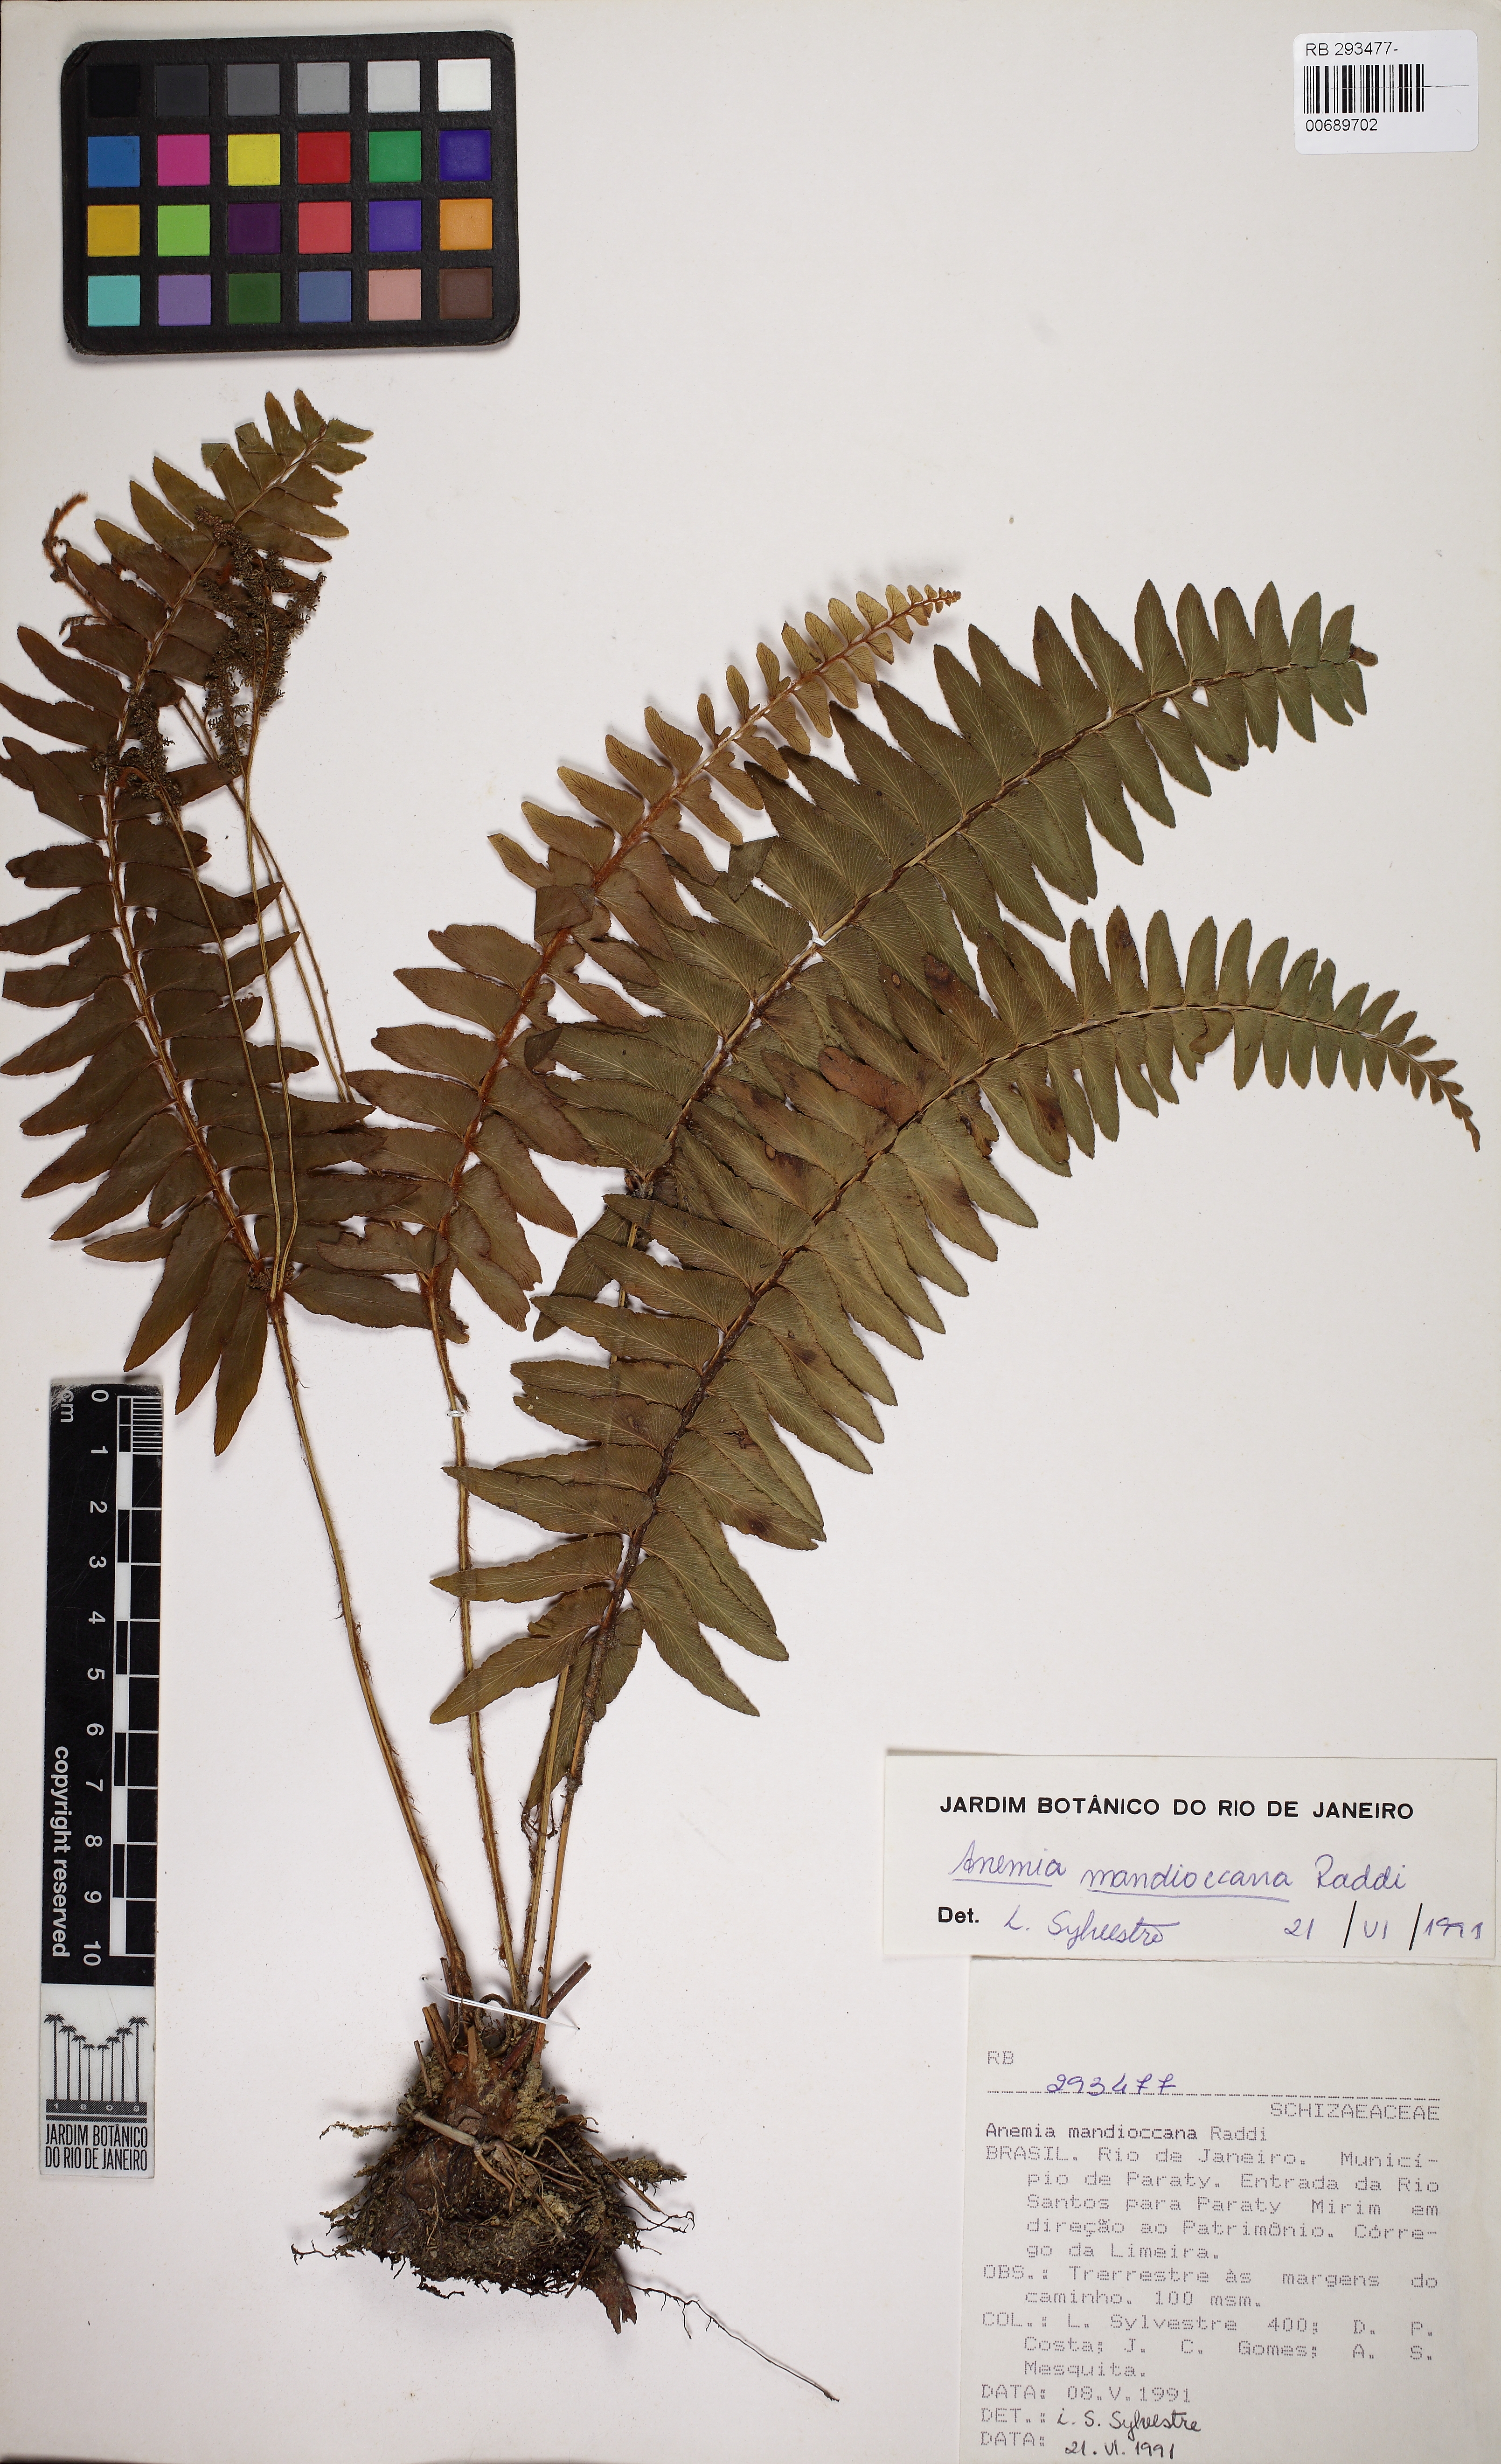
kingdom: Plantae
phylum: Tracheophyta
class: Polypodiopsida
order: Schizaeales
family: Anemiaceae
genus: Anemia
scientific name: Anemia mandiocana
